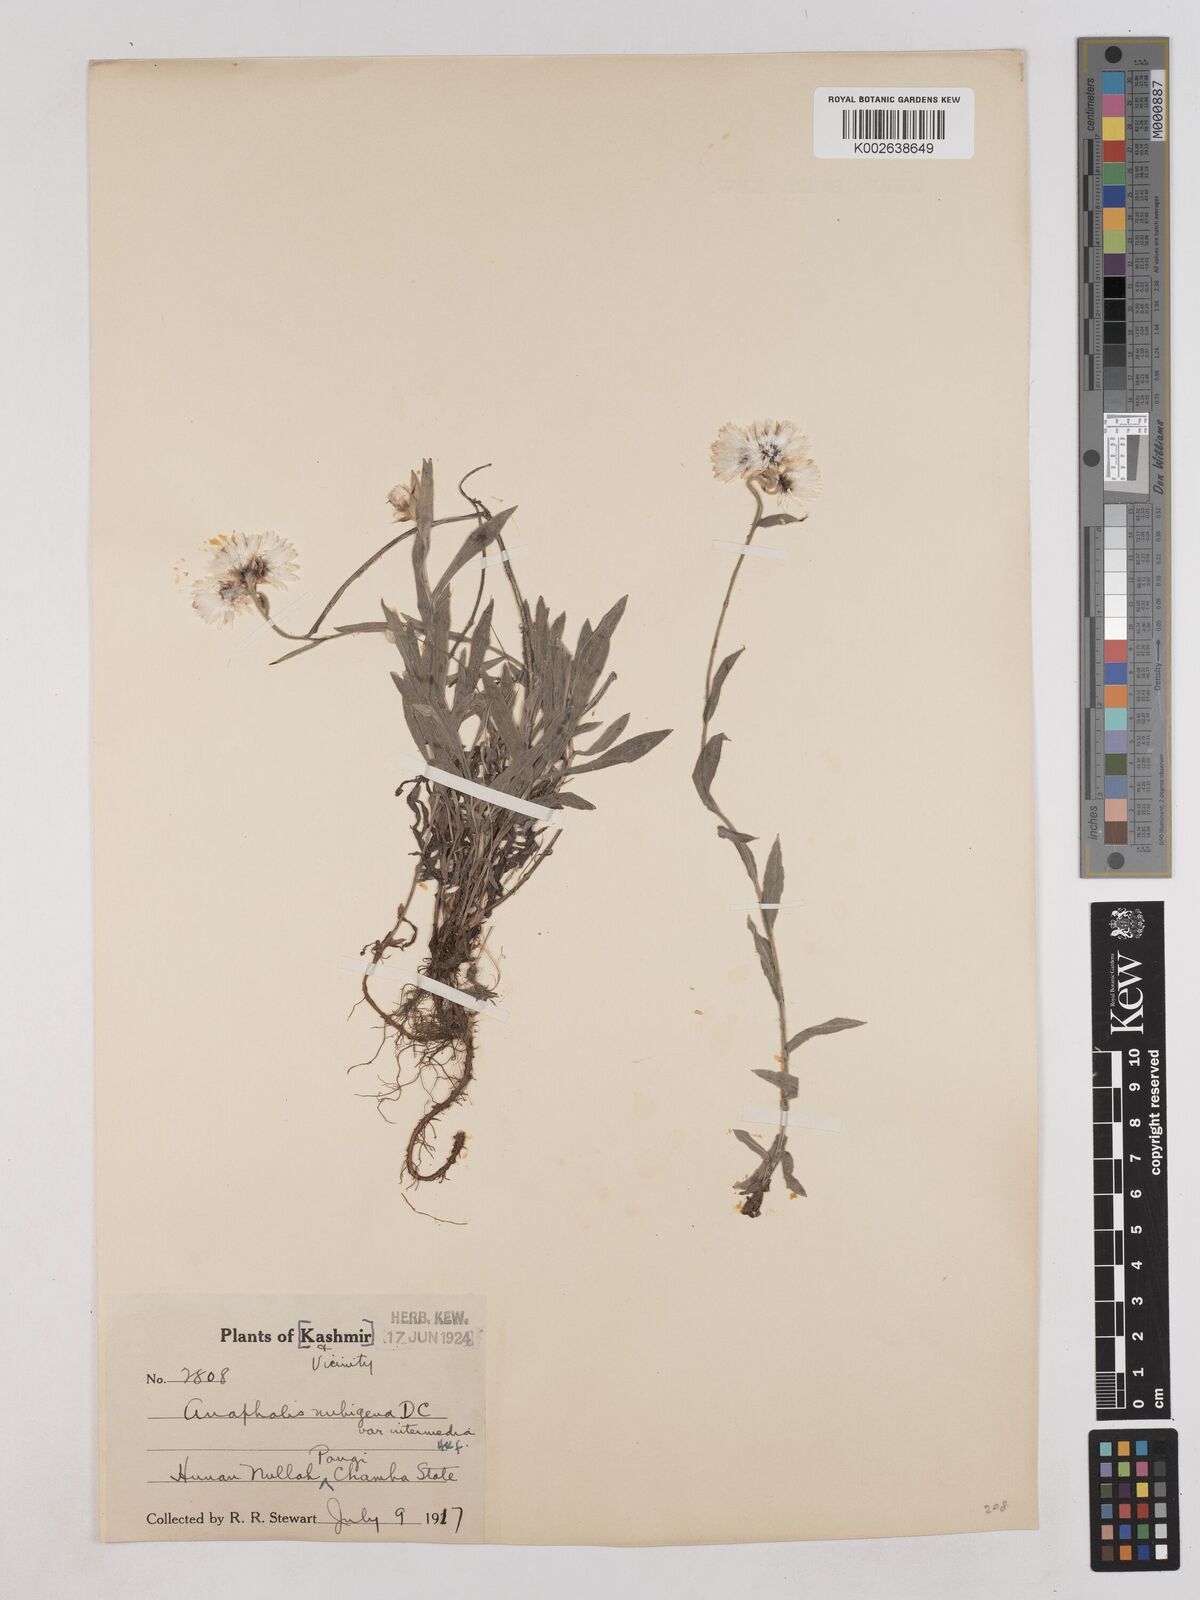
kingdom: Plantae
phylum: Tracheophyta
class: Magnoliopsida
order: Asterales
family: Asteraceae
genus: Anaphalis
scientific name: Anaphalis nepalensis
